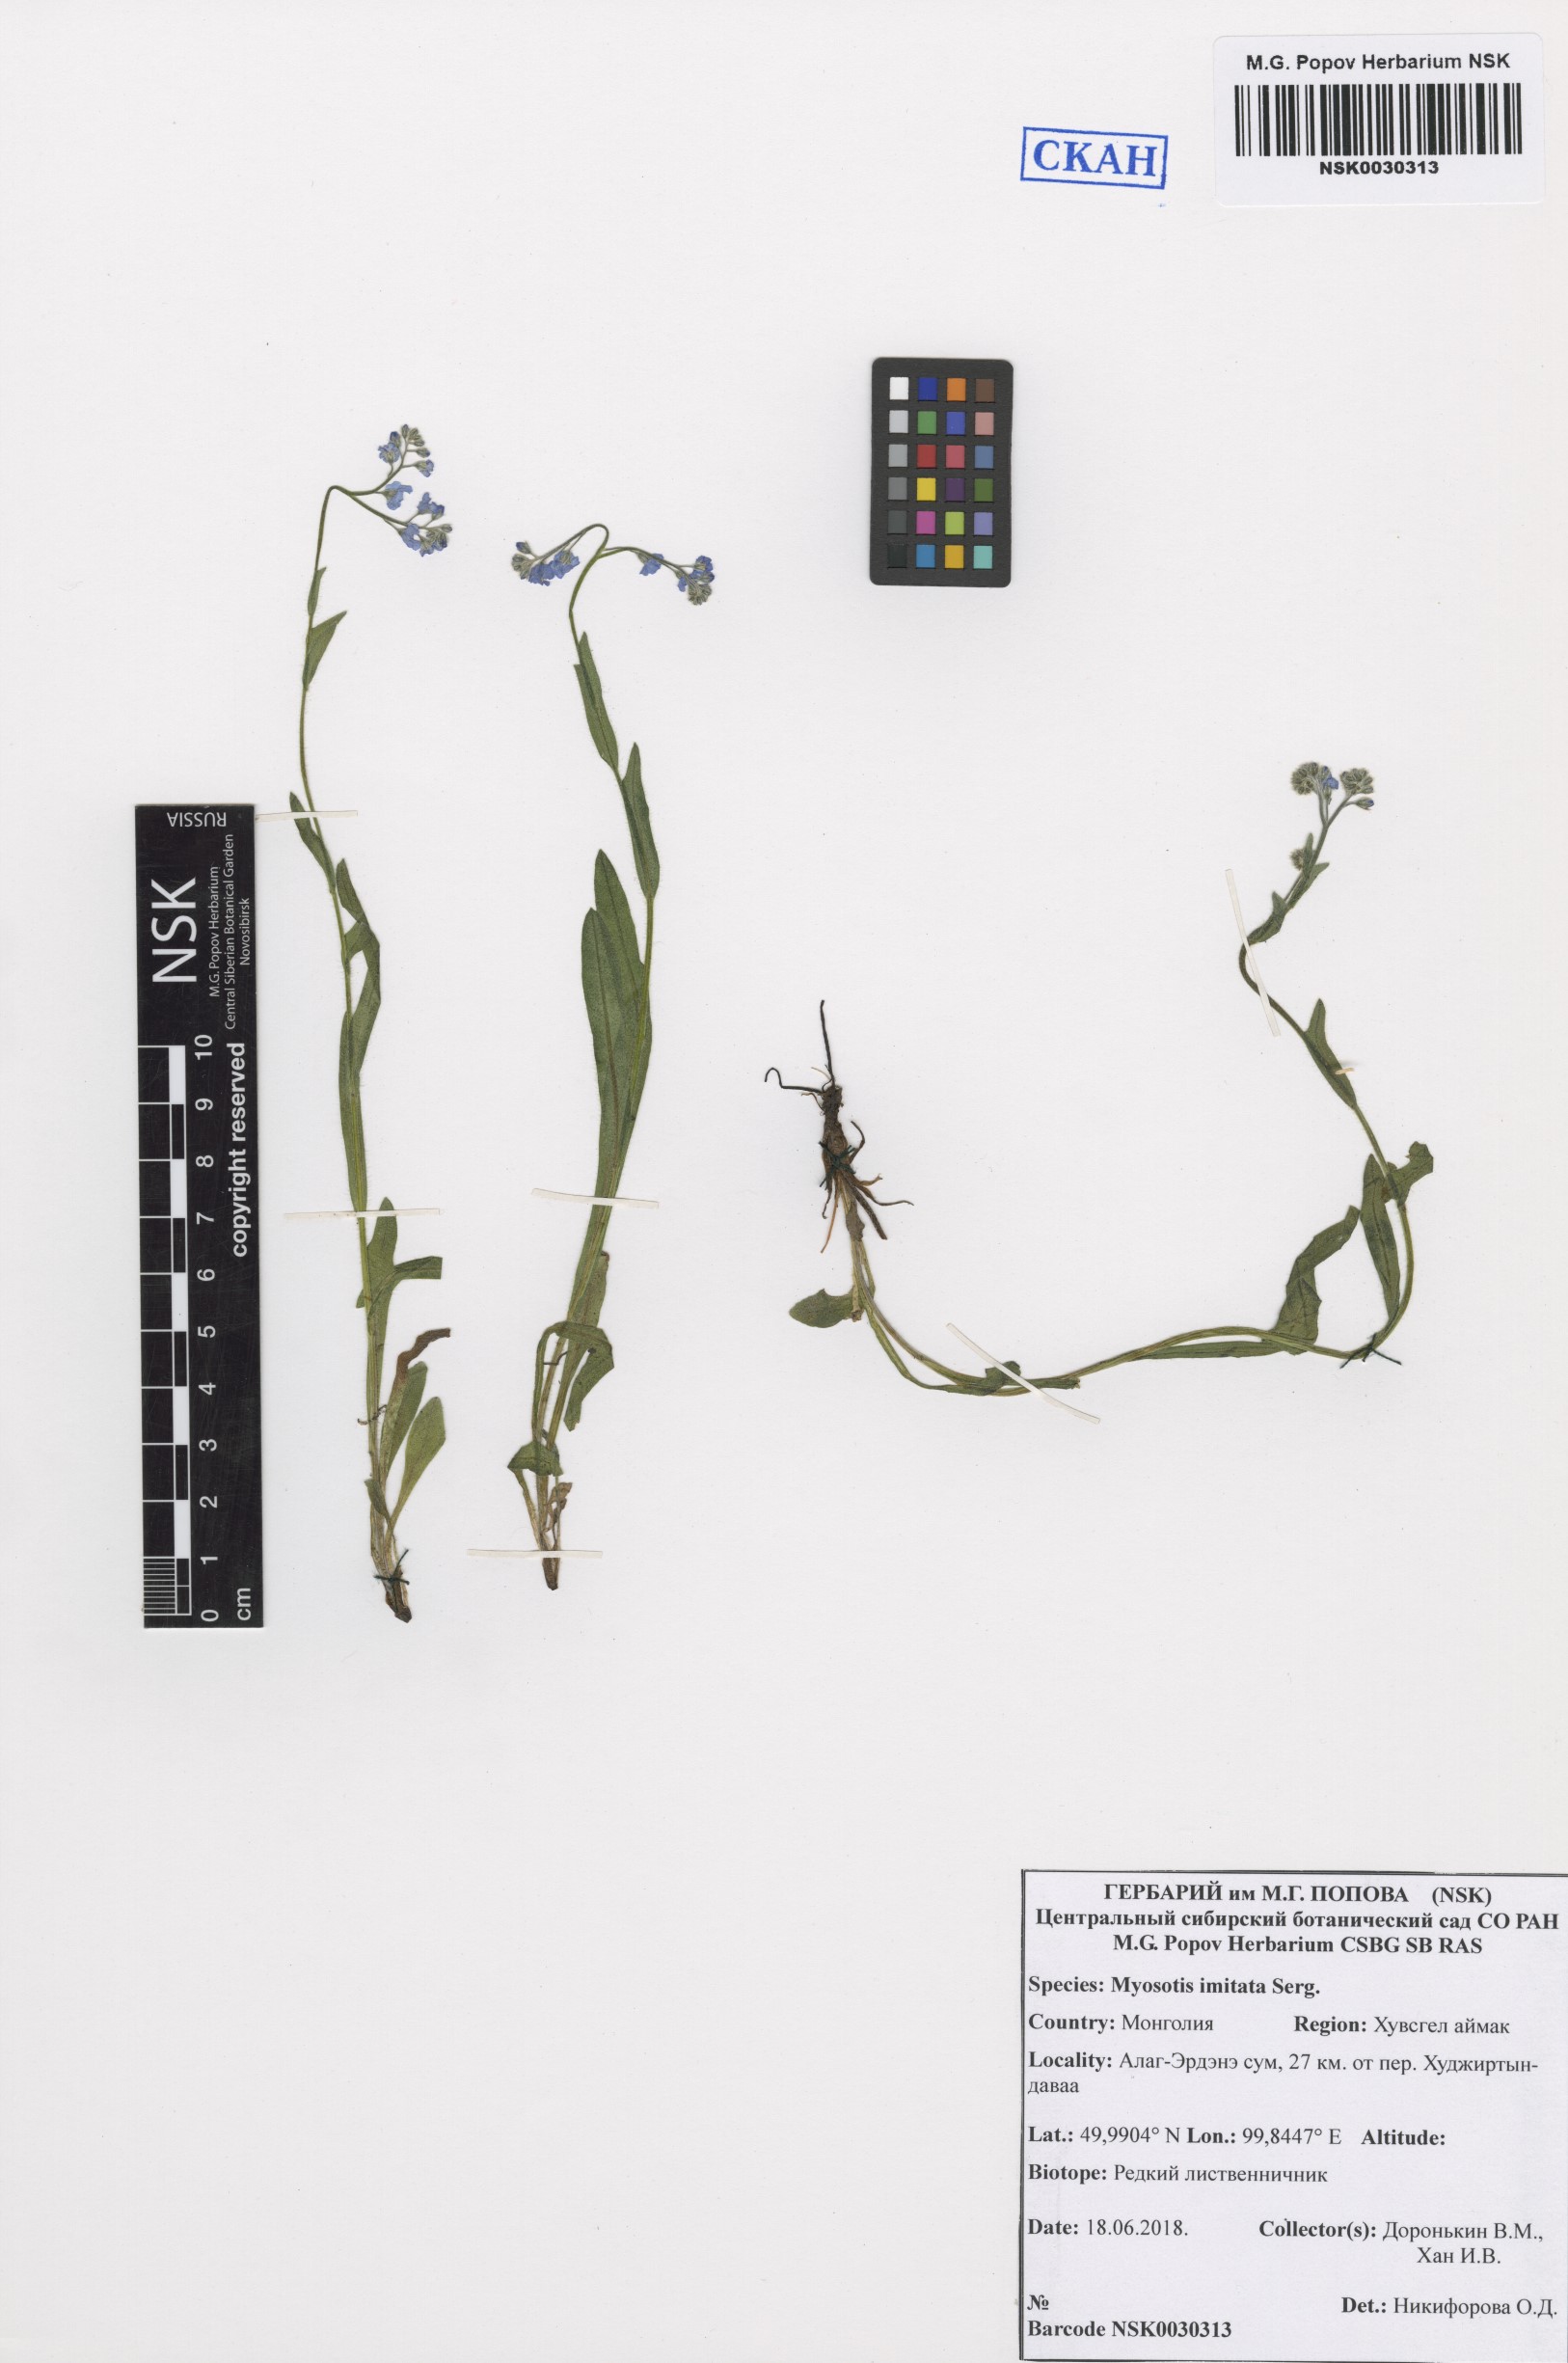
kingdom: Plantae
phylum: Tracheophyta
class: Magnoliopsida
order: Boraginales
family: Boraginaceae
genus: Myosotis
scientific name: Myosotis imitata
